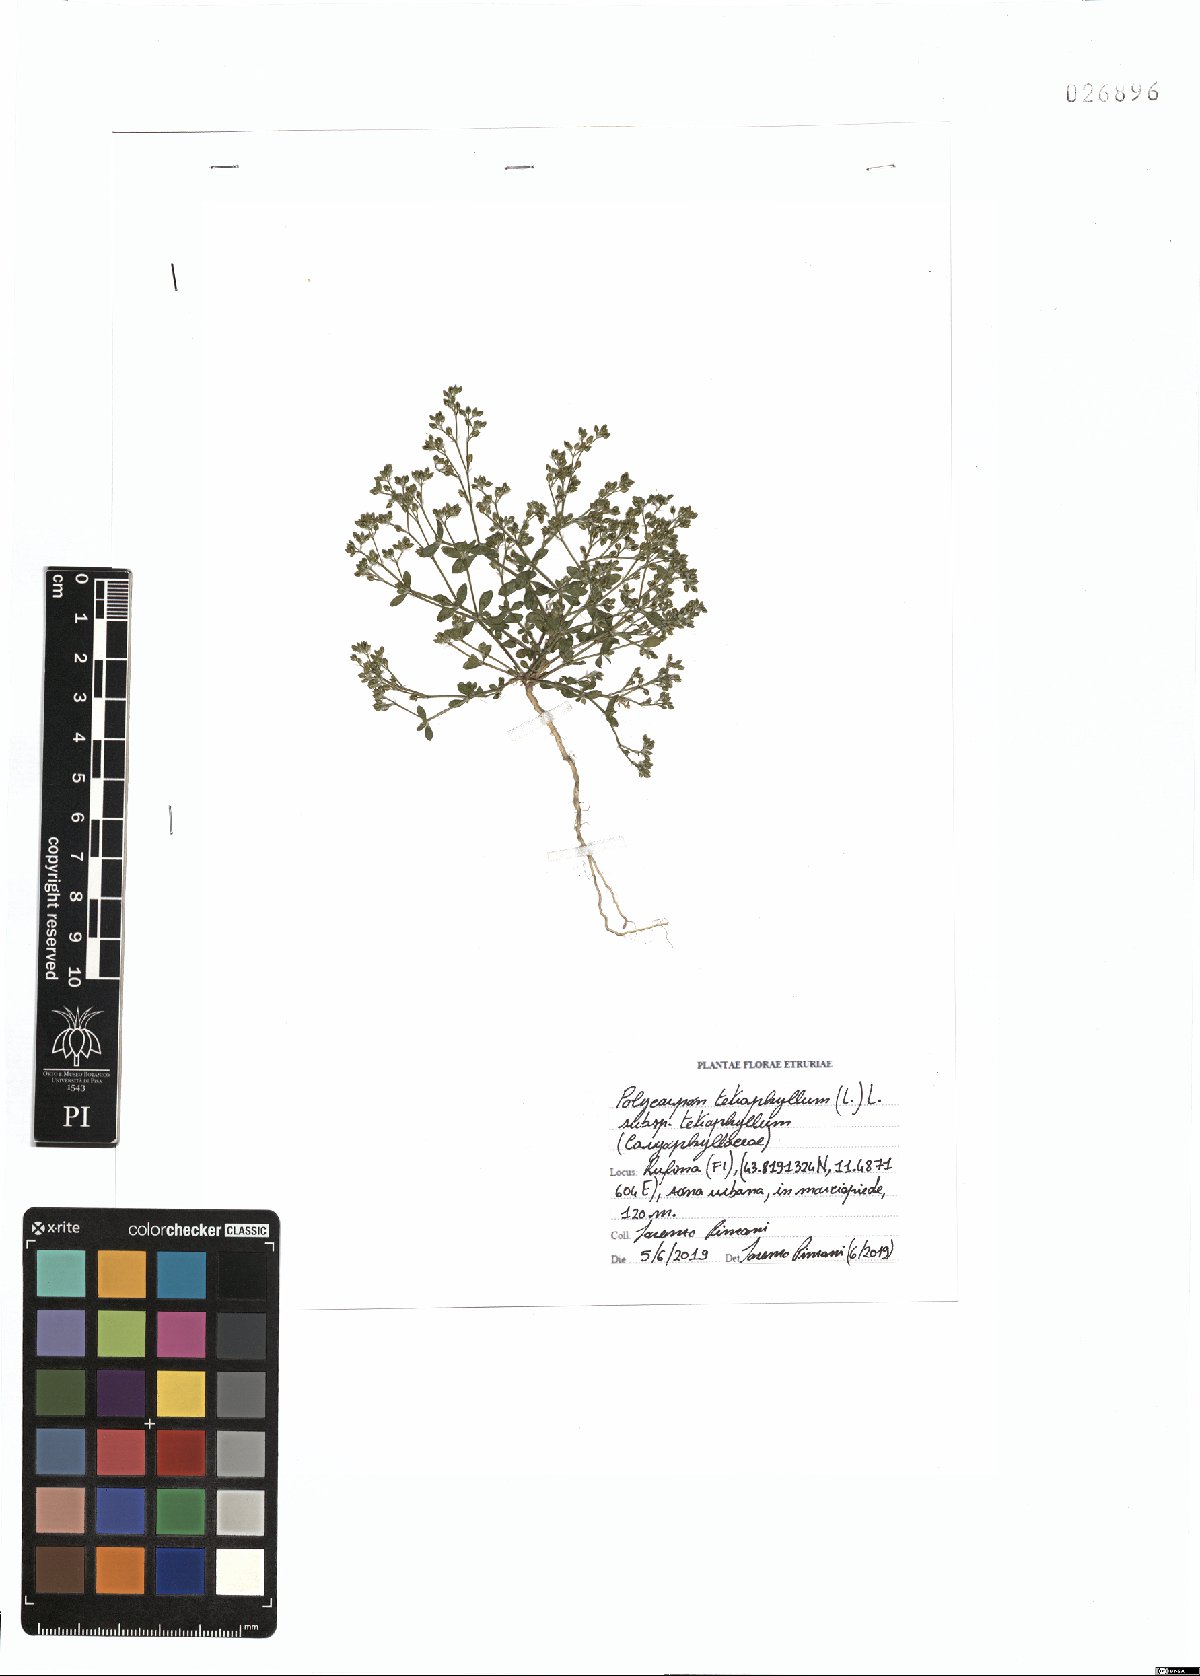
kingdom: Plantae
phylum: Tracheophyta
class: Magnoliopsida
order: Caryophyllales
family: Caryophyllaceae
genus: Polycarpon
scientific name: Polycarpon tetraphyllum
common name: Four-leaved all-seed
